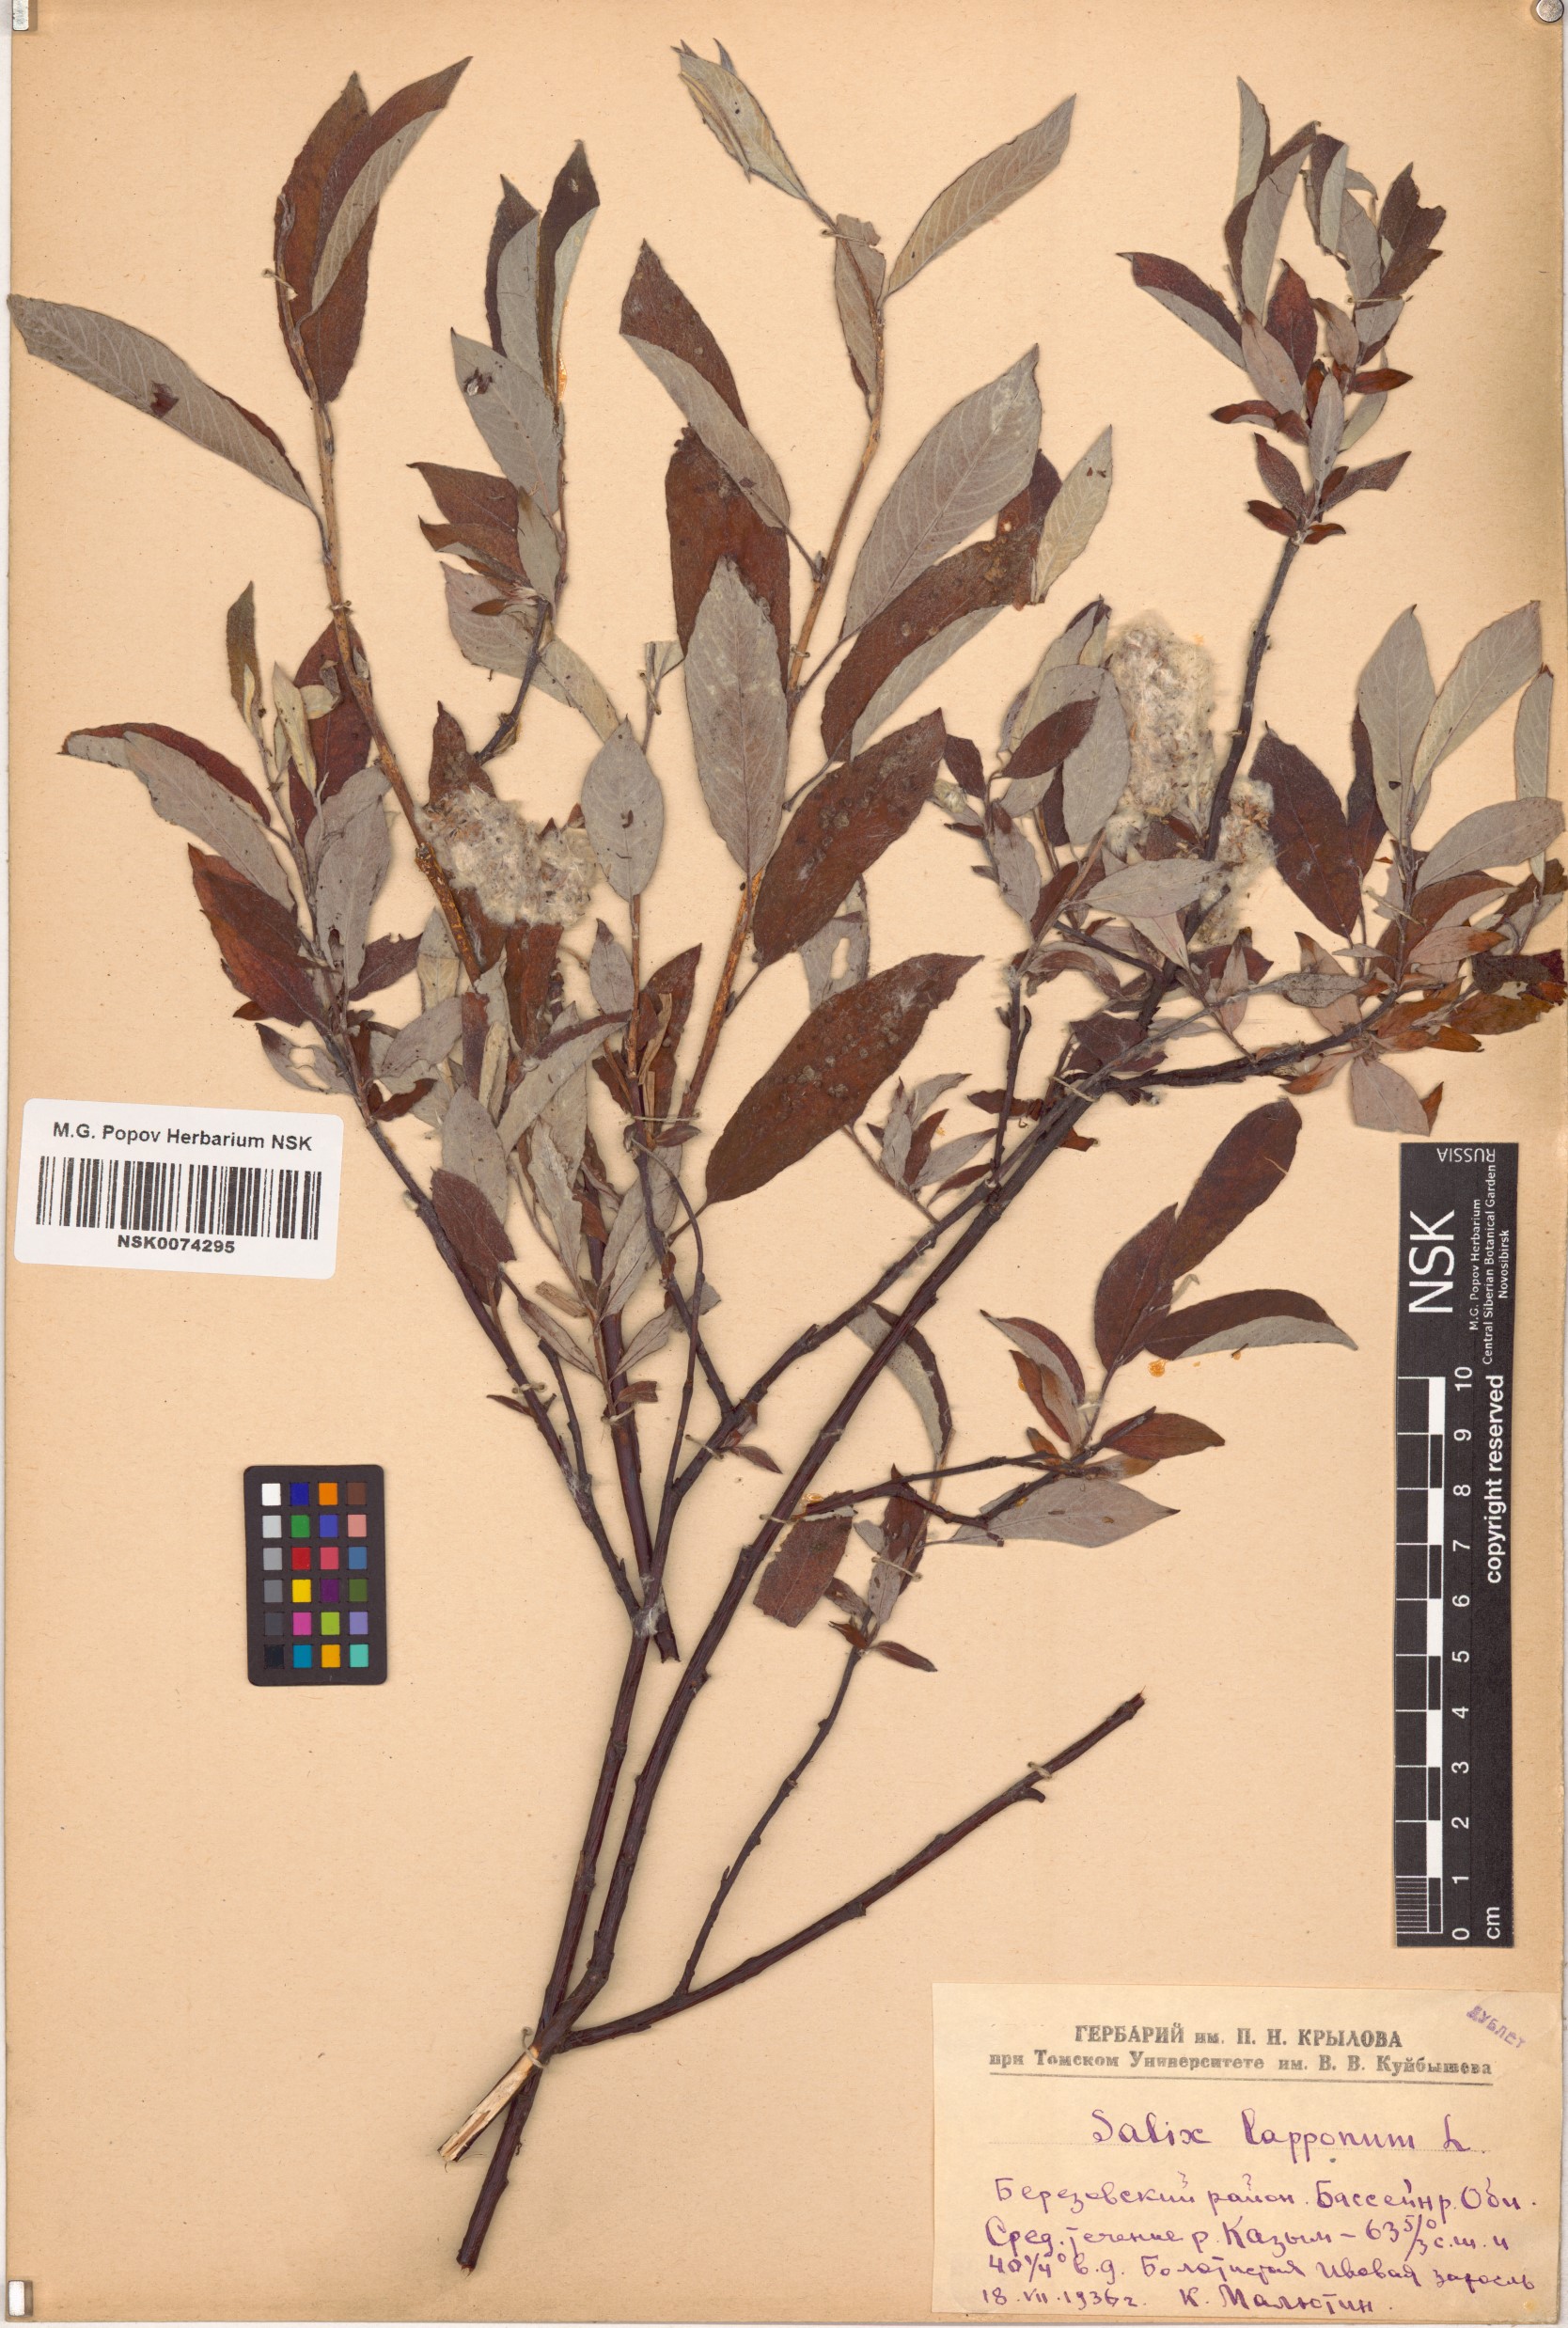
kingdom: Plantae
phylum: Tracheophyta
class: Magnoliopsida
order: Malpighiales
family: Salicaceae
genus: Salix
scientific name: Salix lapponum
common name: Downy willow
